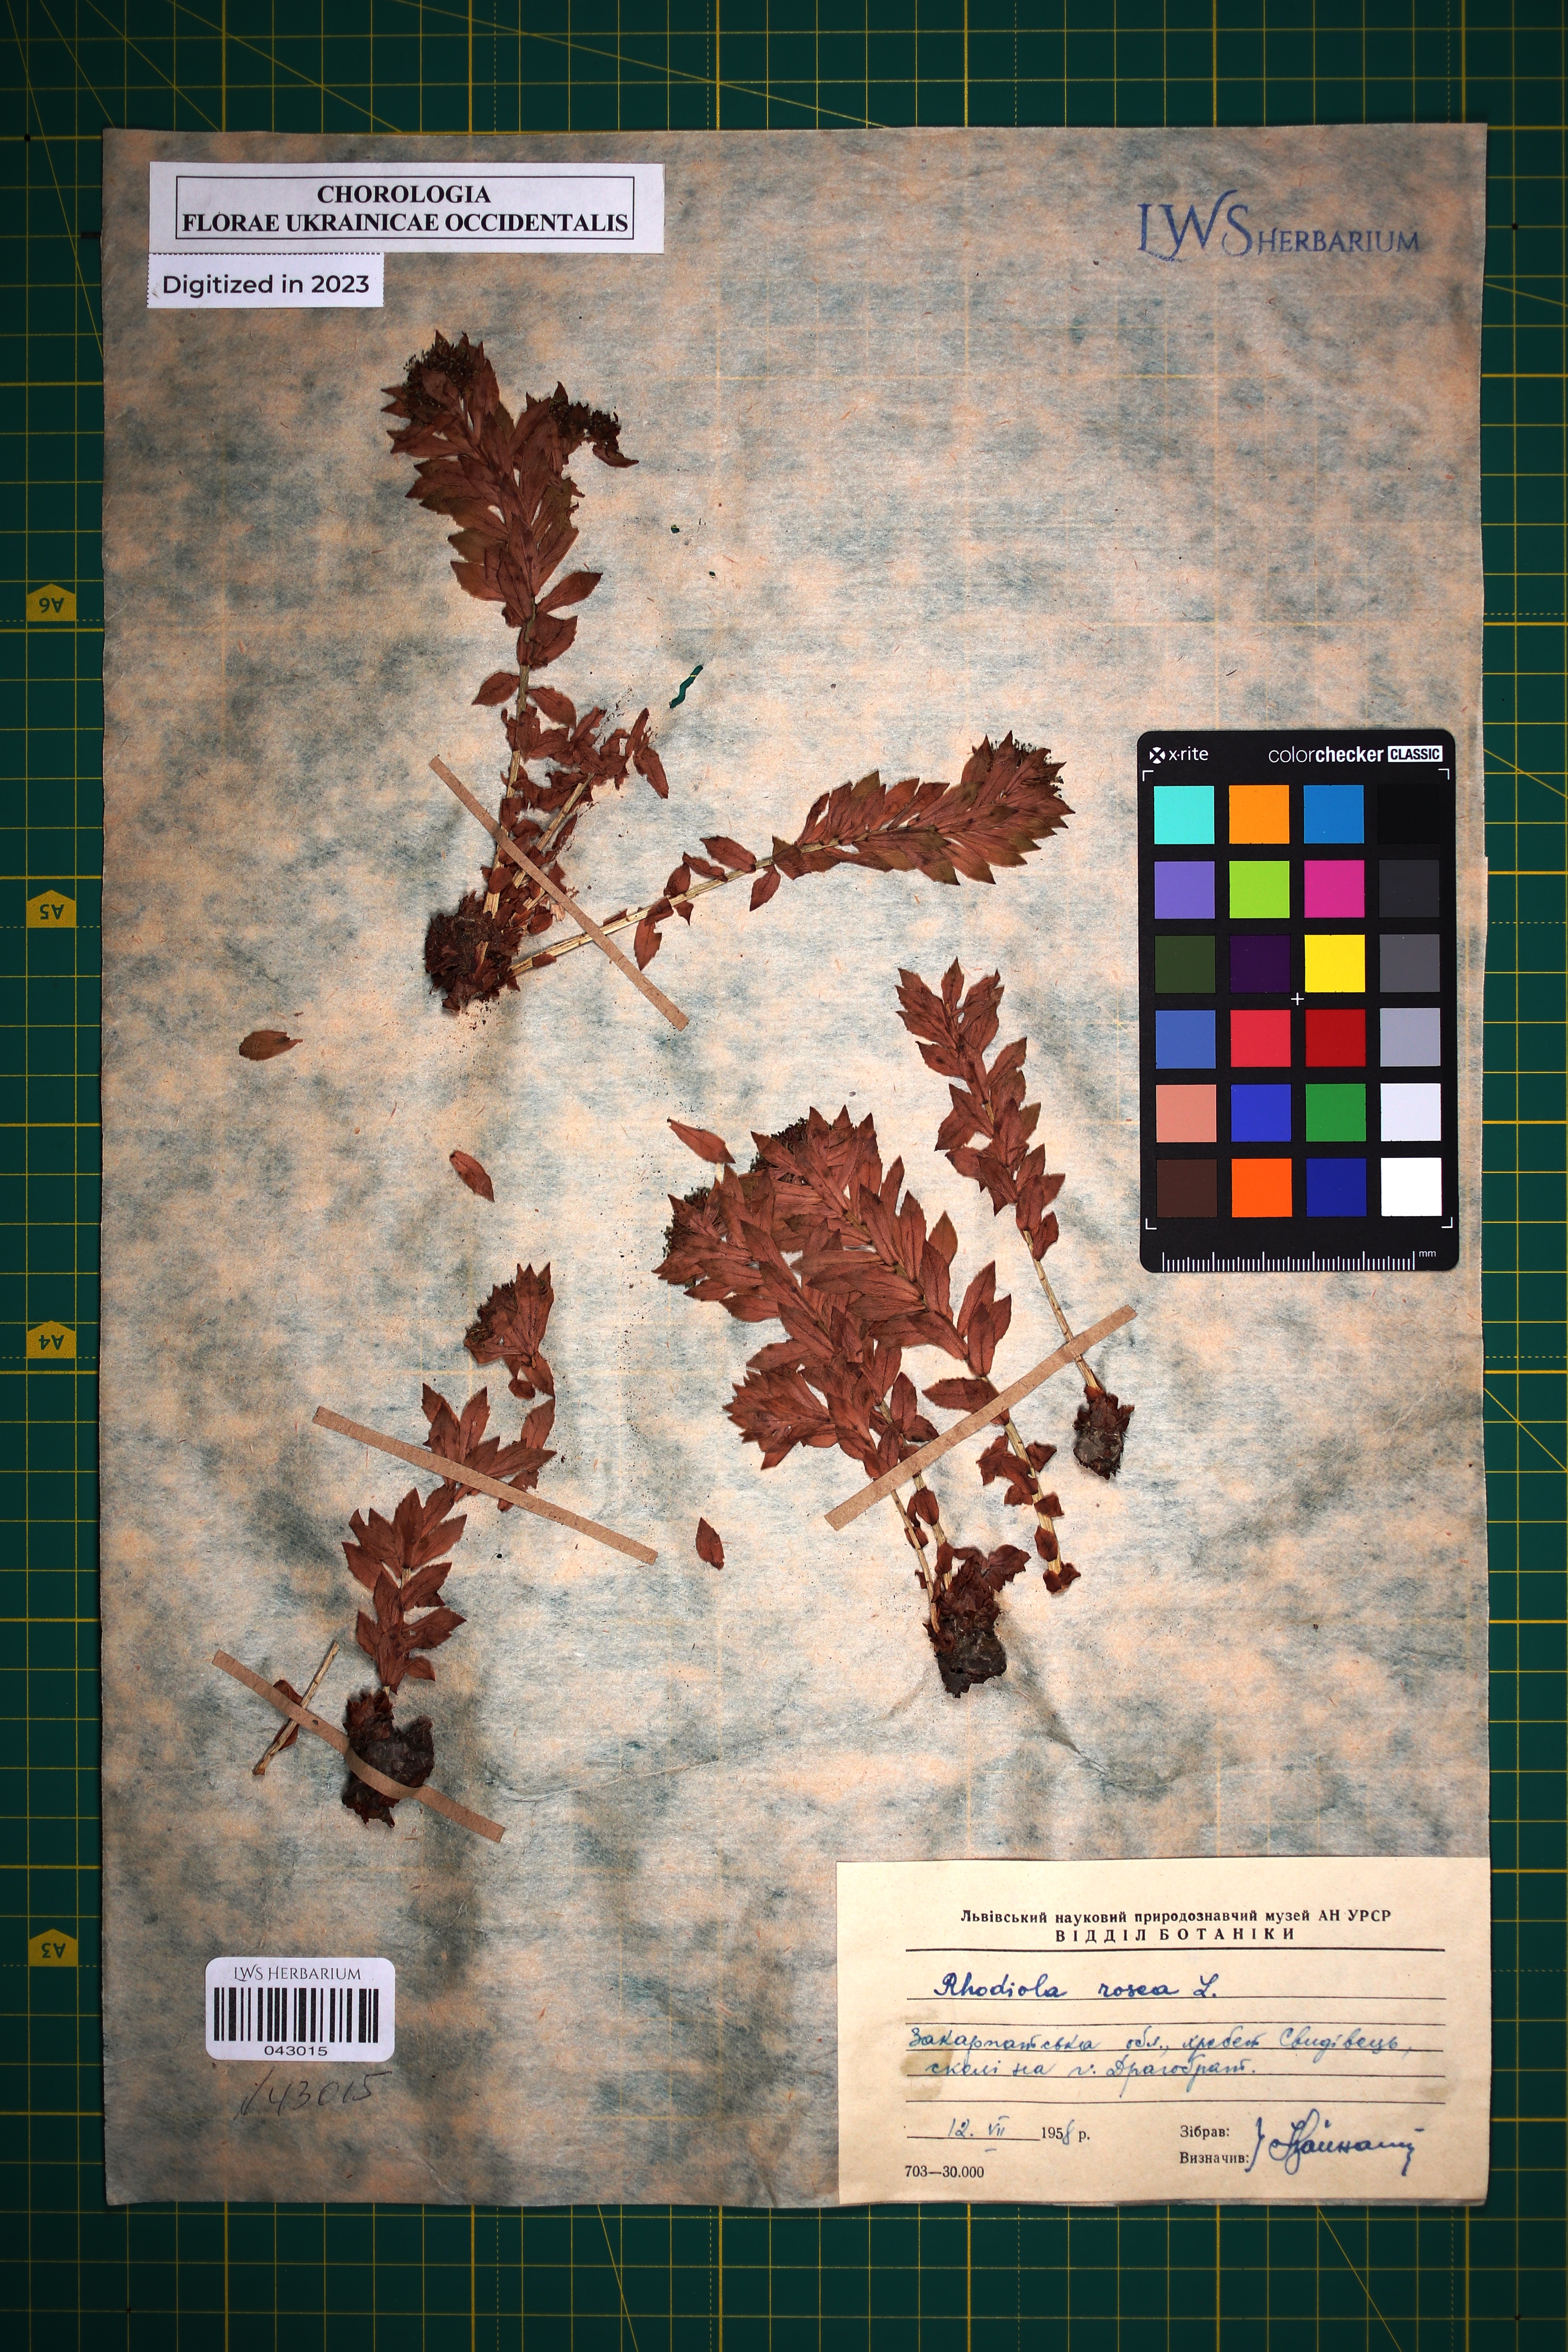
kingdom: Plantae
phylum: Tracheophyta
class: Magnoliopsida
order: Saxifragales
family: Crassulaceae
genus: Rhodiola
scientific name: Rhodiola rosea
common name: Roseroot
